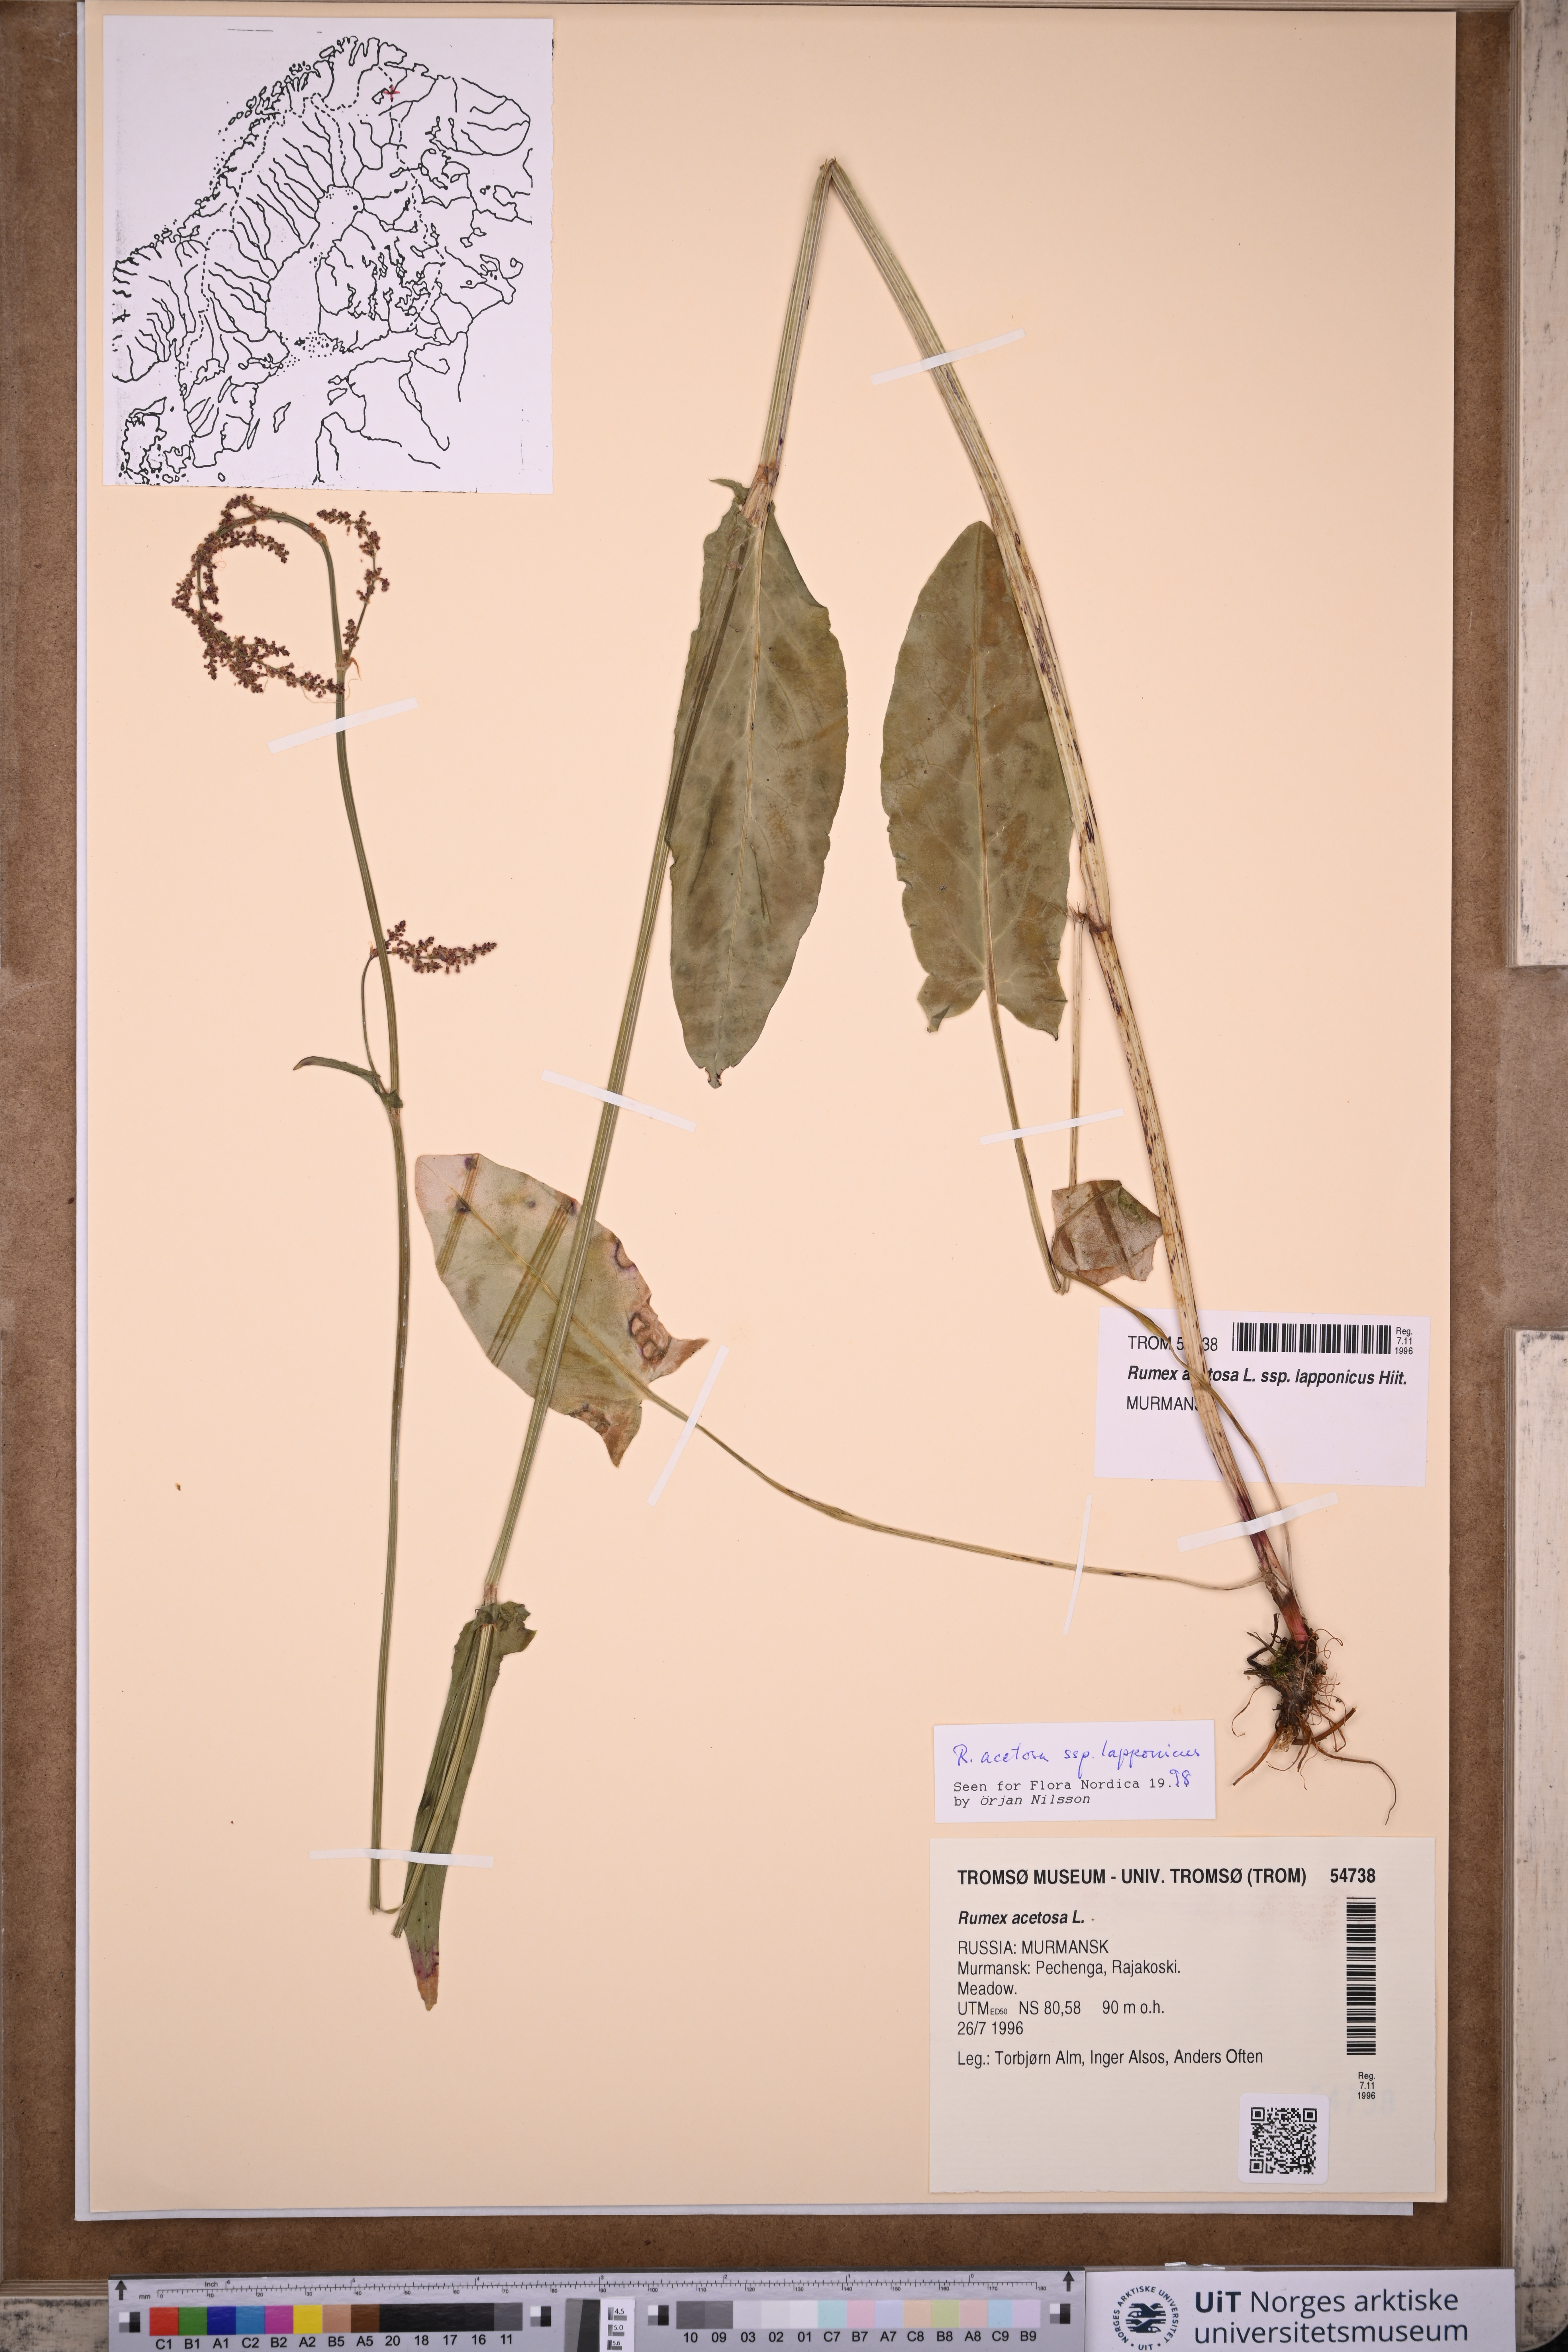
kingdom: Plantae
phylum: Tracheophyta
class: Magnoliopsida
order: Caryophyllales
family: Polygonaceae
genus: Rumex
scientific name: Rumex lapponicus
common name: Lapland mountain sorrel
